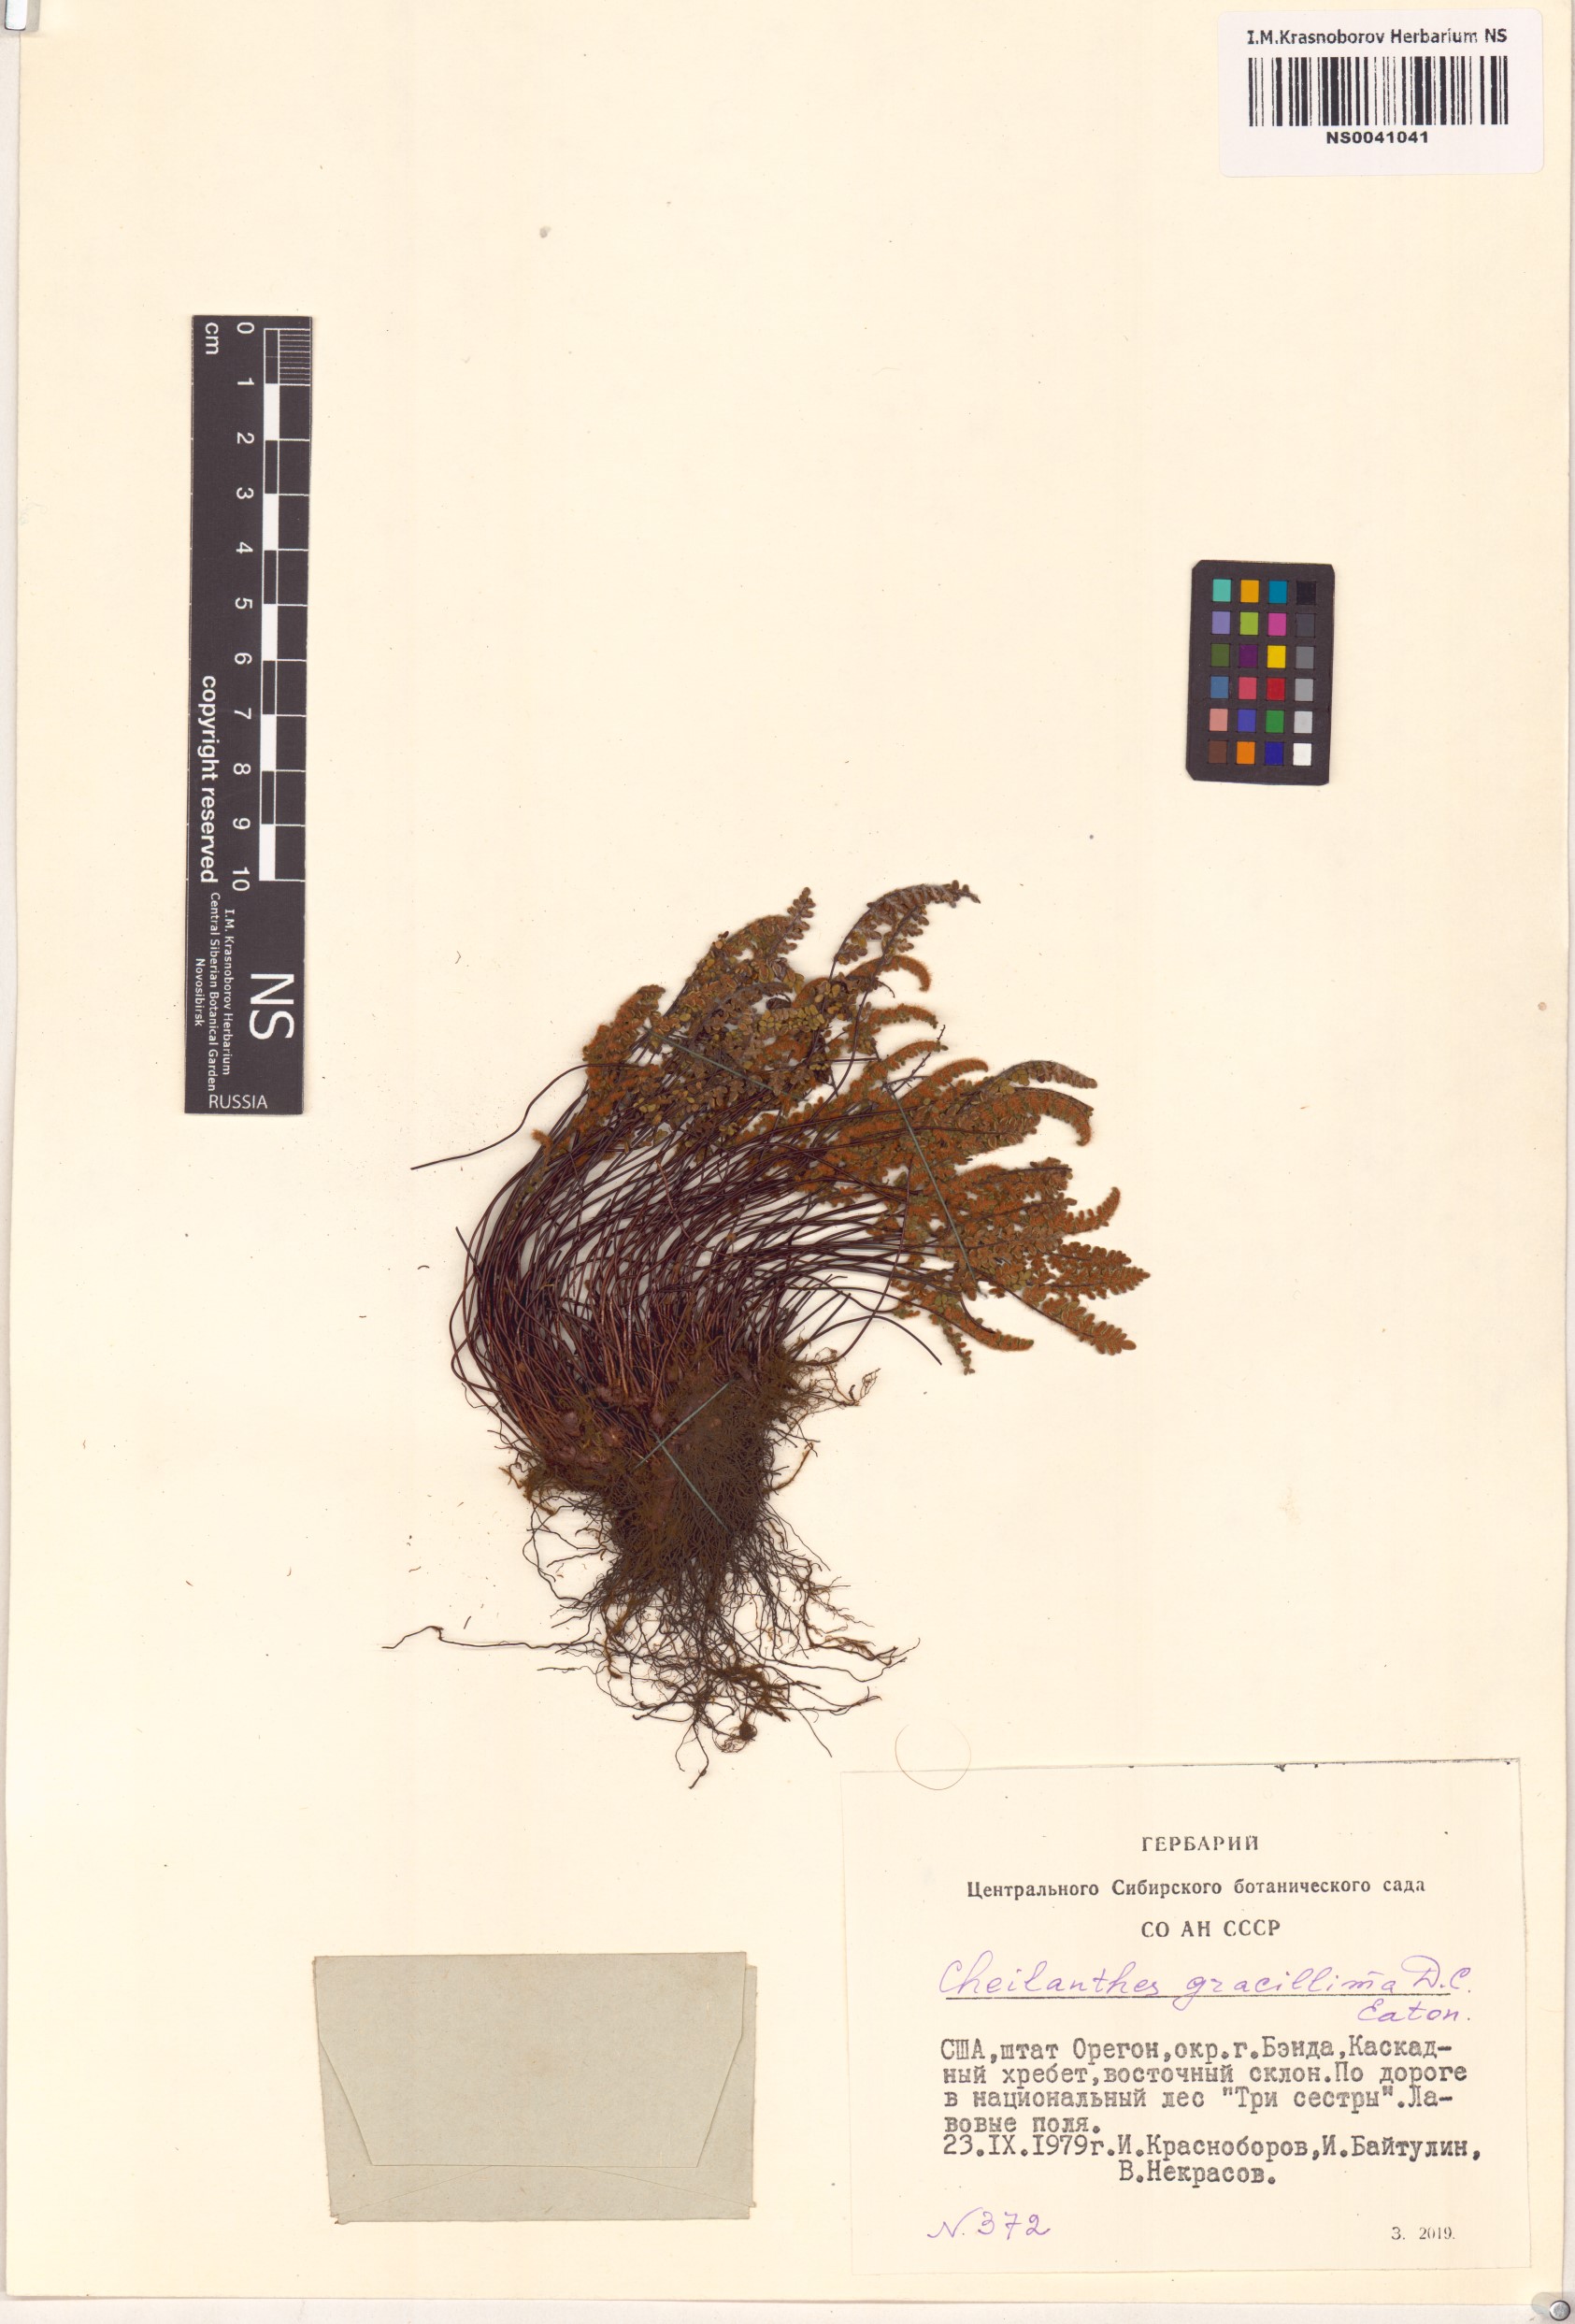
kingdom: Plantae
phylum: Tracheophyta
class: Polypodiopsida
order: Polypodiales
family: Pteridaceae
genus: Myriopteris
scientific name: Myriopteris gracillima
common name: Lace fern
